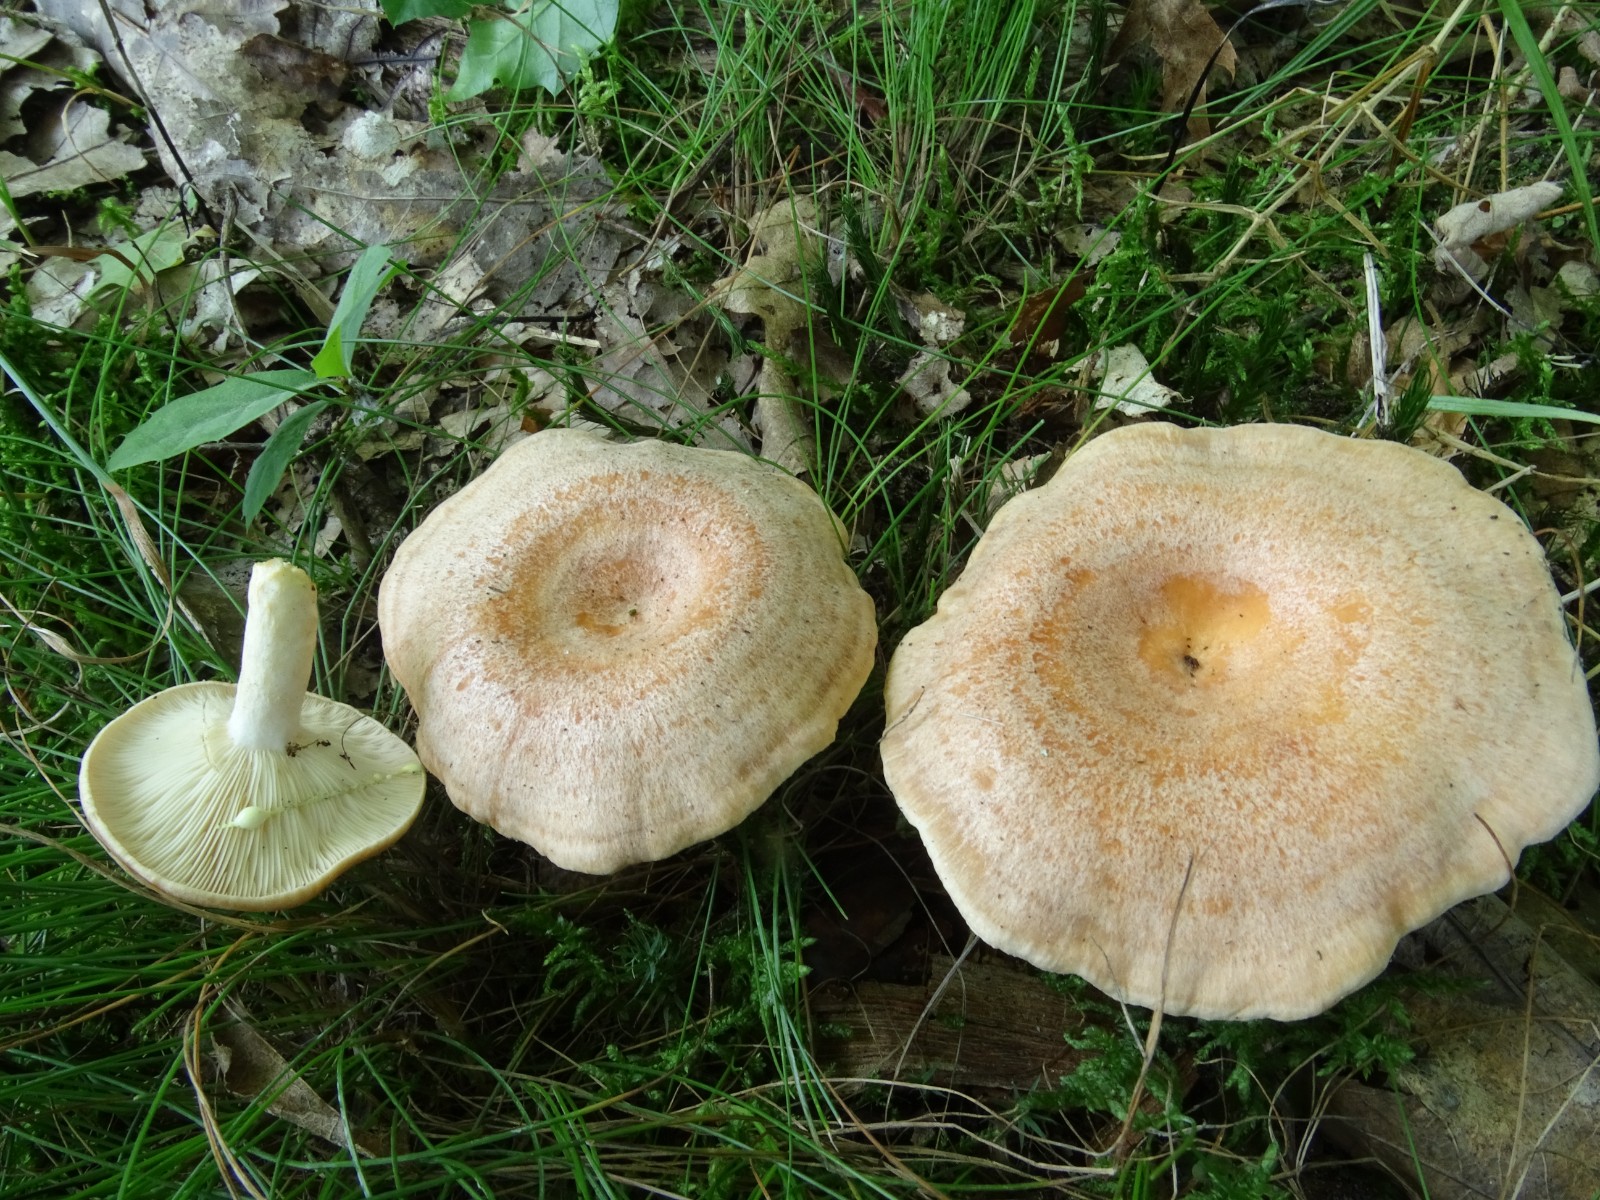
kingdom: Fungi
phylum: Basidiomycota
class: Agaricomycetes
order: Russulales
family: Russulaceae
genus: Lactarius
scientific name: Lactarius chrysorrheus
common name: svovlmælket mælkehat
